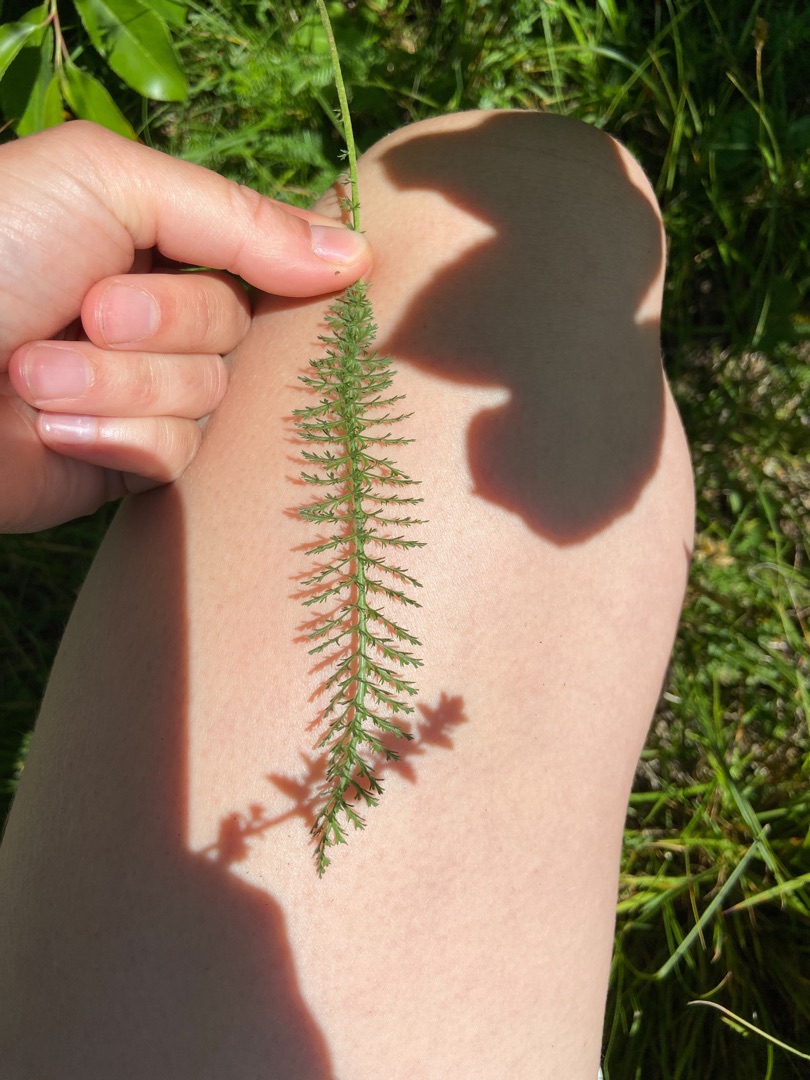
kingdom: Plantae
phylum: Tracheophyta
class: Magnoliopsida
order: Asterales
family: Asteraceae
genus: Achillea
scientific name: Achillea millefolium
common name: Almindelig røllike
